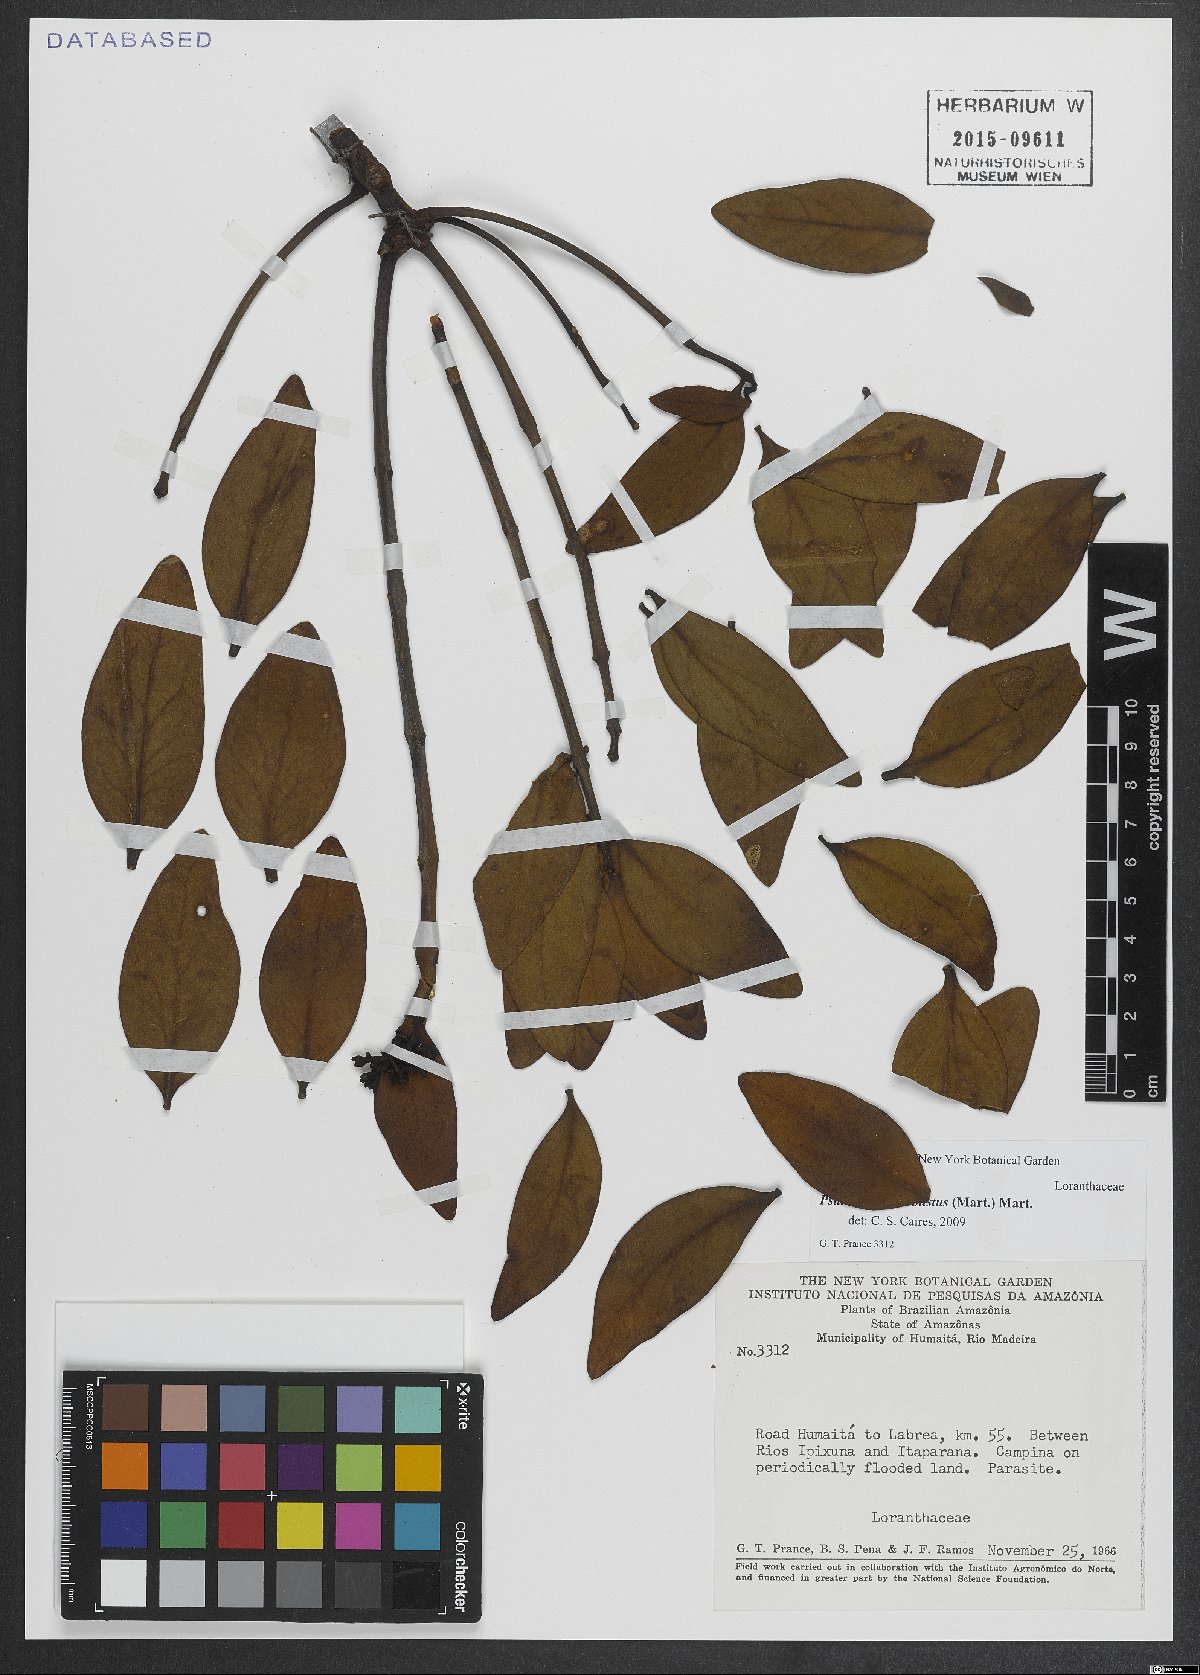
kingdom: Plantae
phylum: Tracheophyta
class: Magnoliopsida
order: Santalales
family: Loranthaceae
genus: Psittacanthus
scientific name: Psittacanthus robustus
